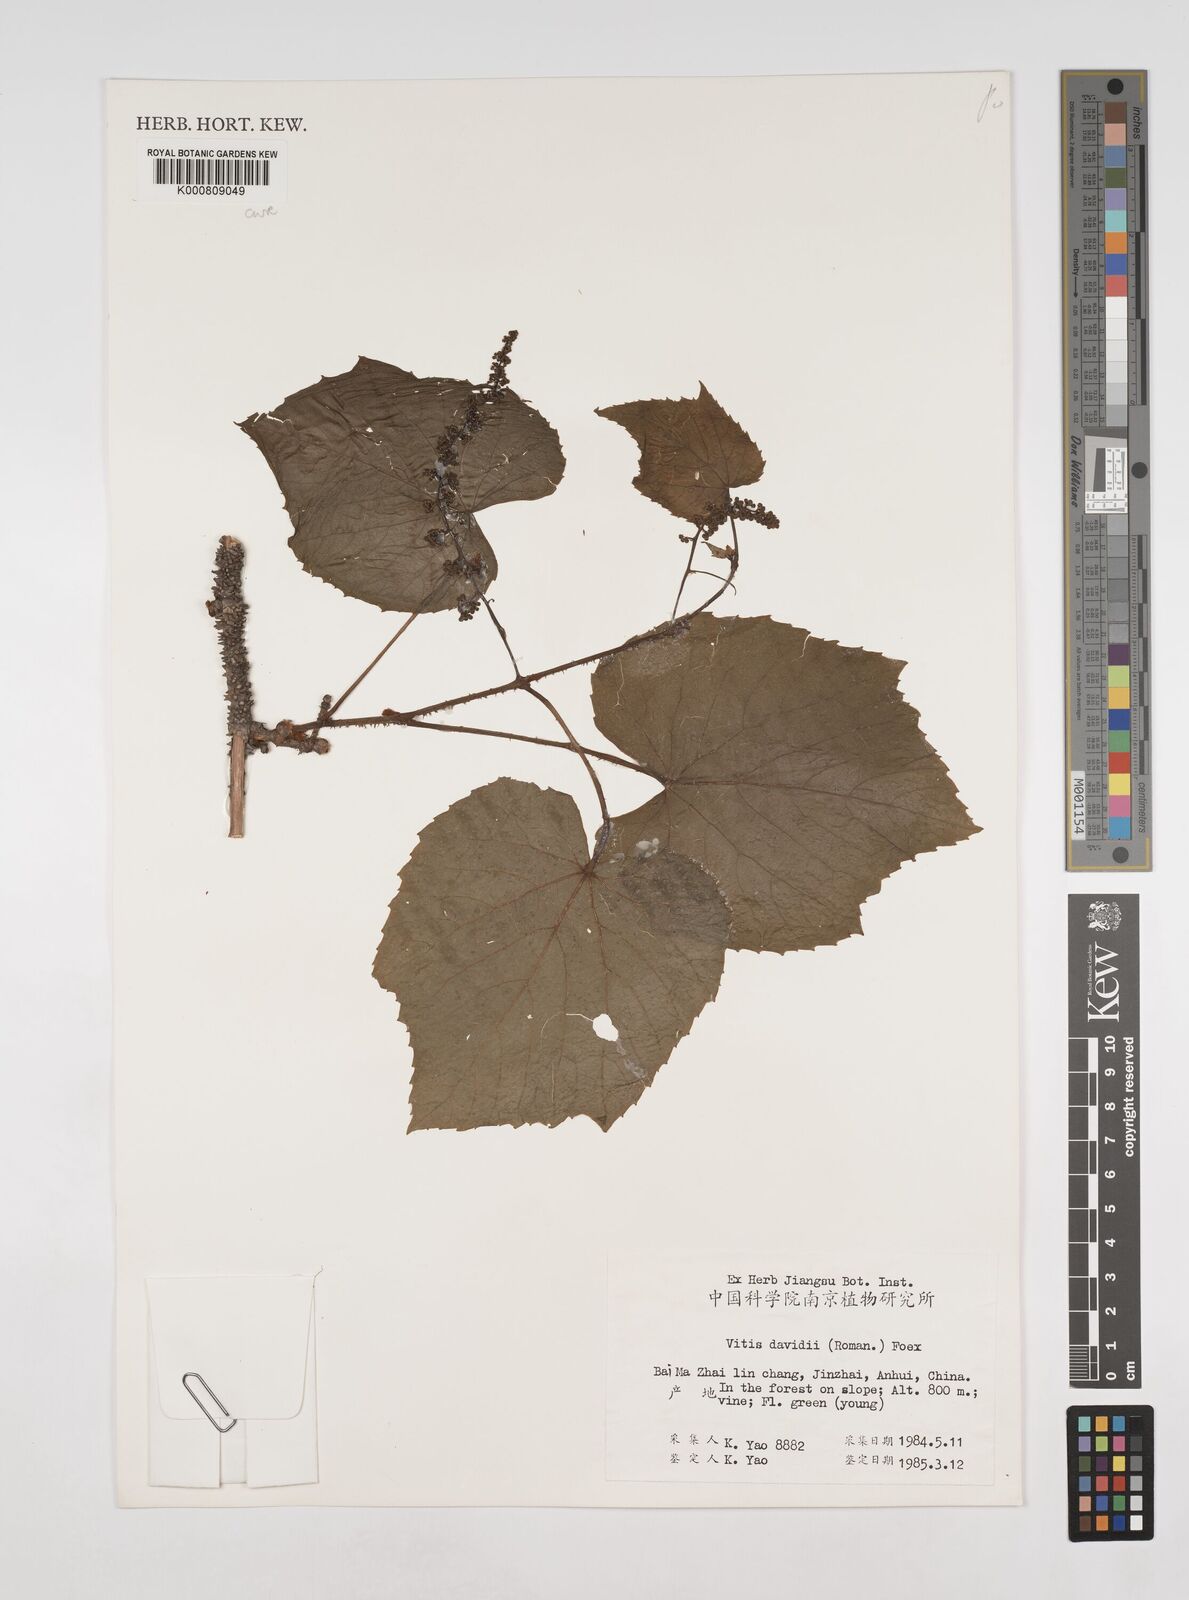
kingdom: Plantae
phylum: Tracheophyta
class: Magnoliopsida
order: Vitales
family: Vitaceae
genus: Vitis
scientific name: Vitis
